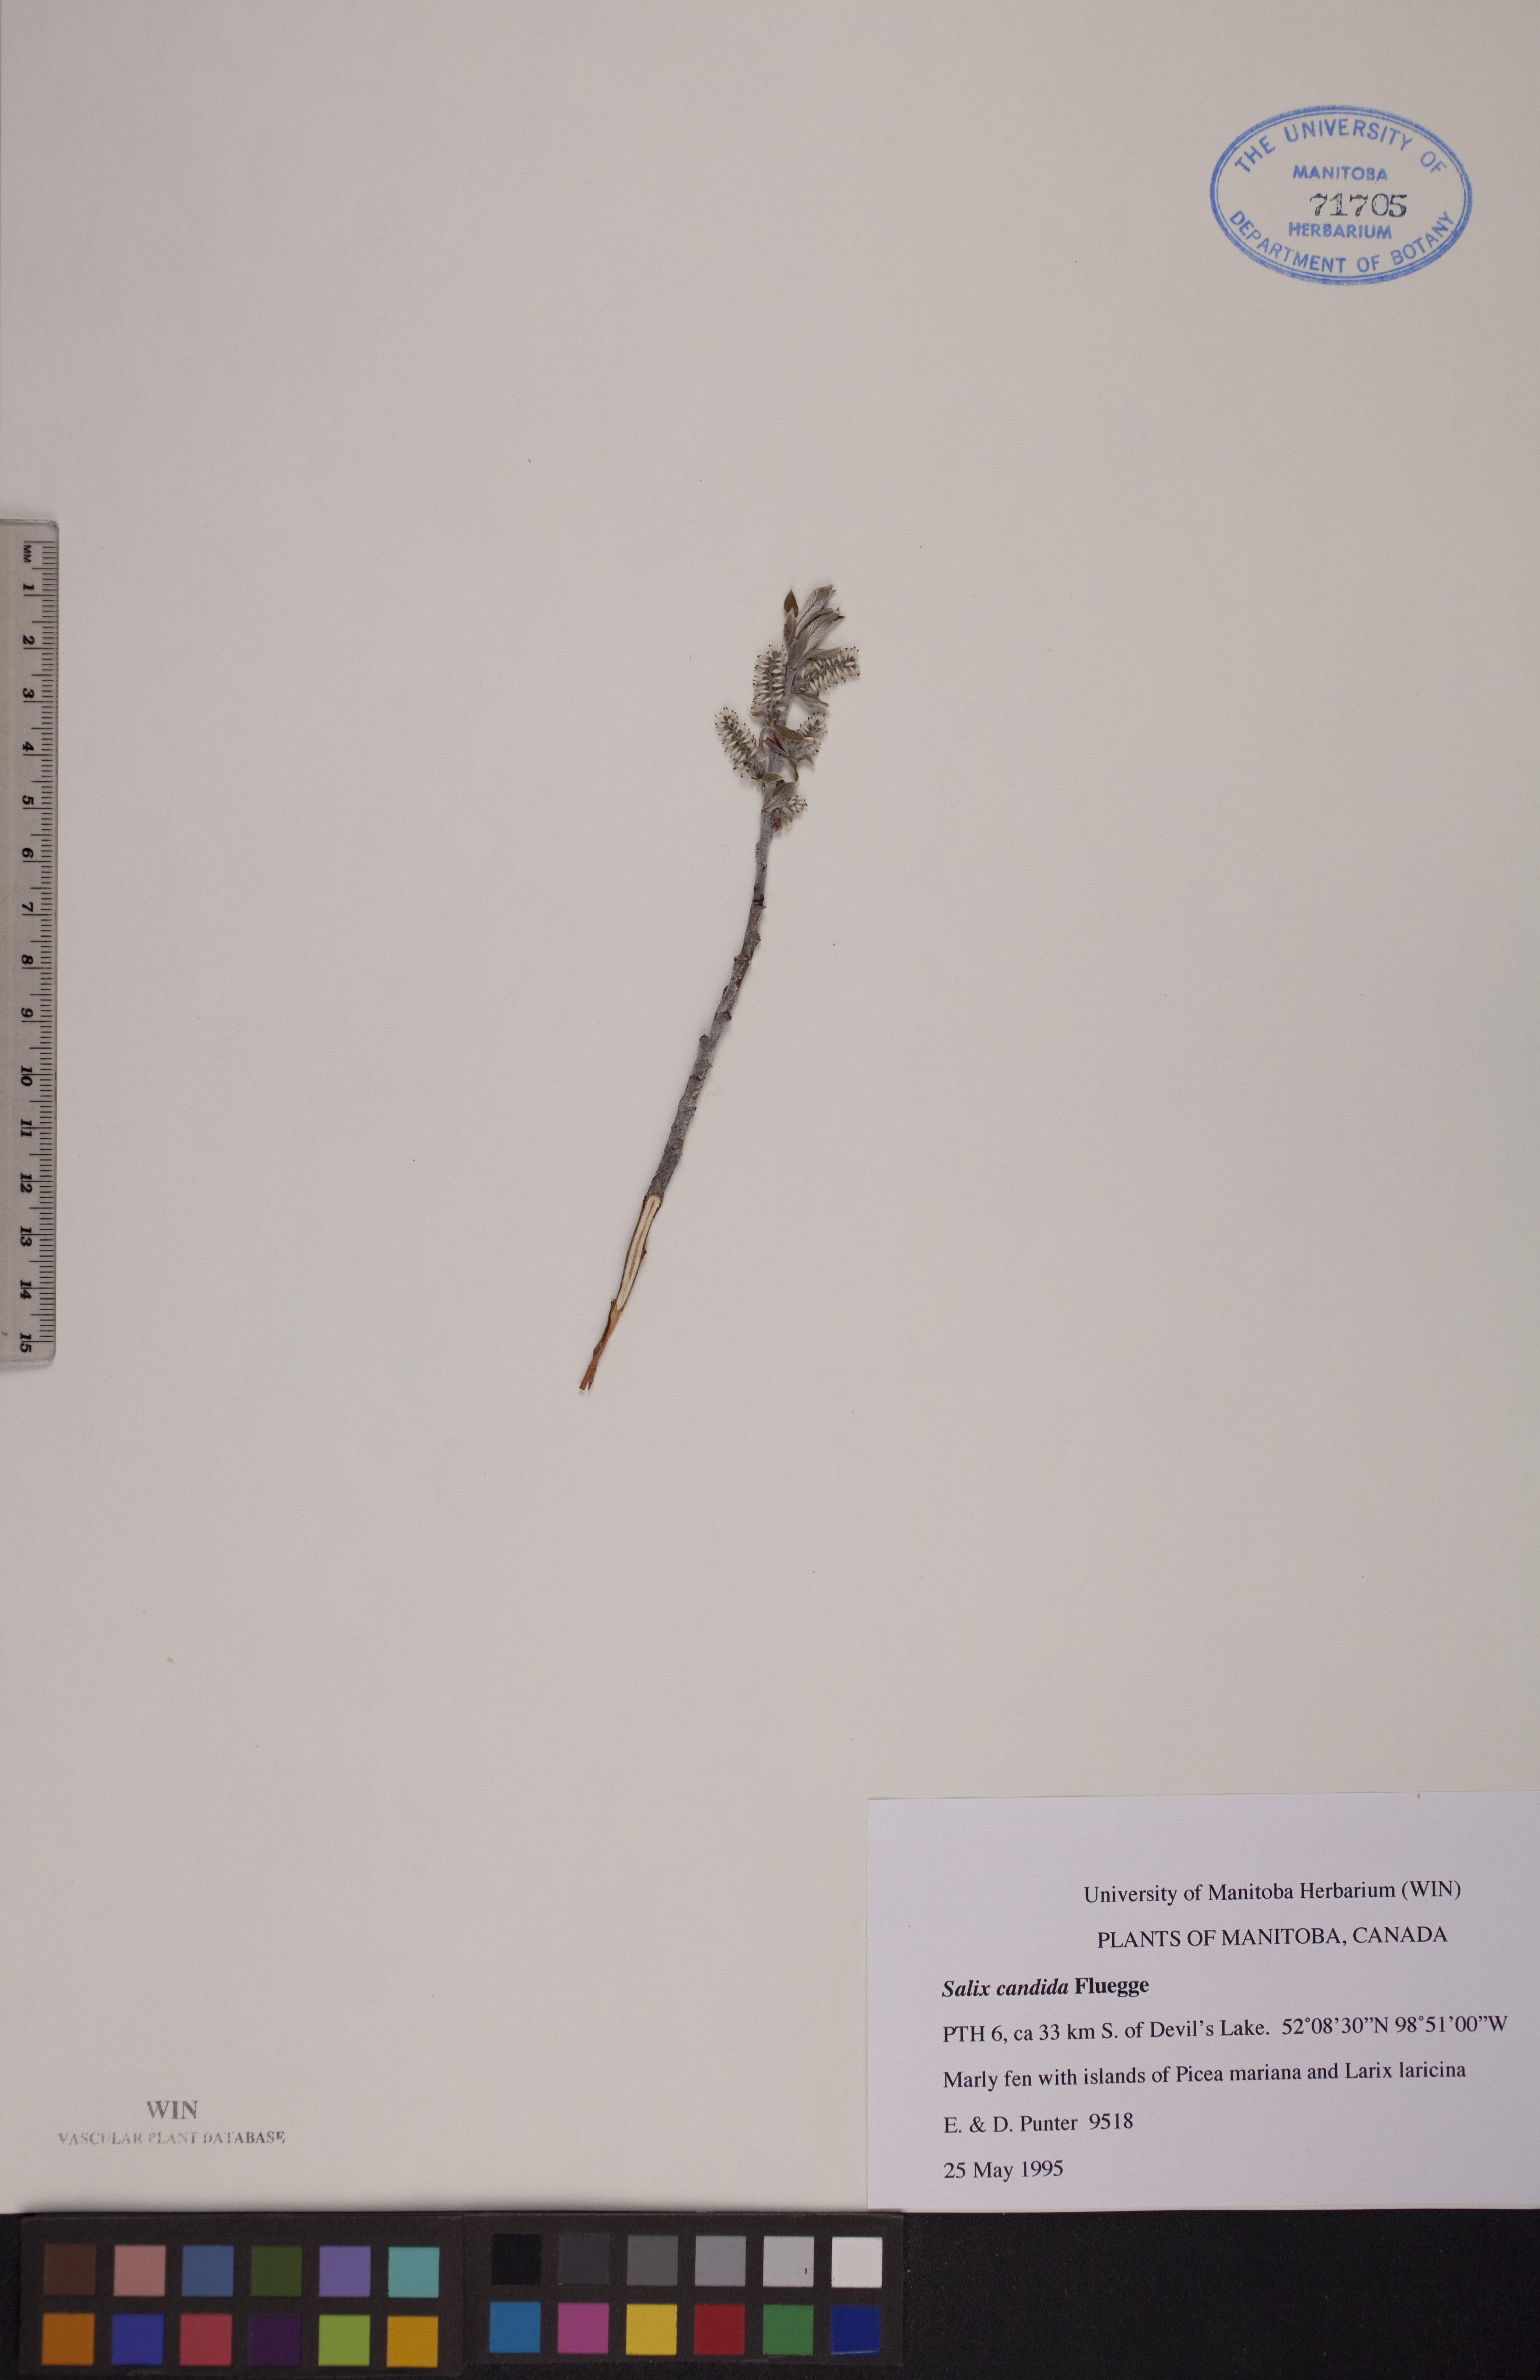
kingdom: Plantae
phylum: Tracheophyta
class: Magnoliopsida
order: Malpighiales
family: Salicaceae
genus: Salix
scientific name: Salix candida
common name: Hoary willow
